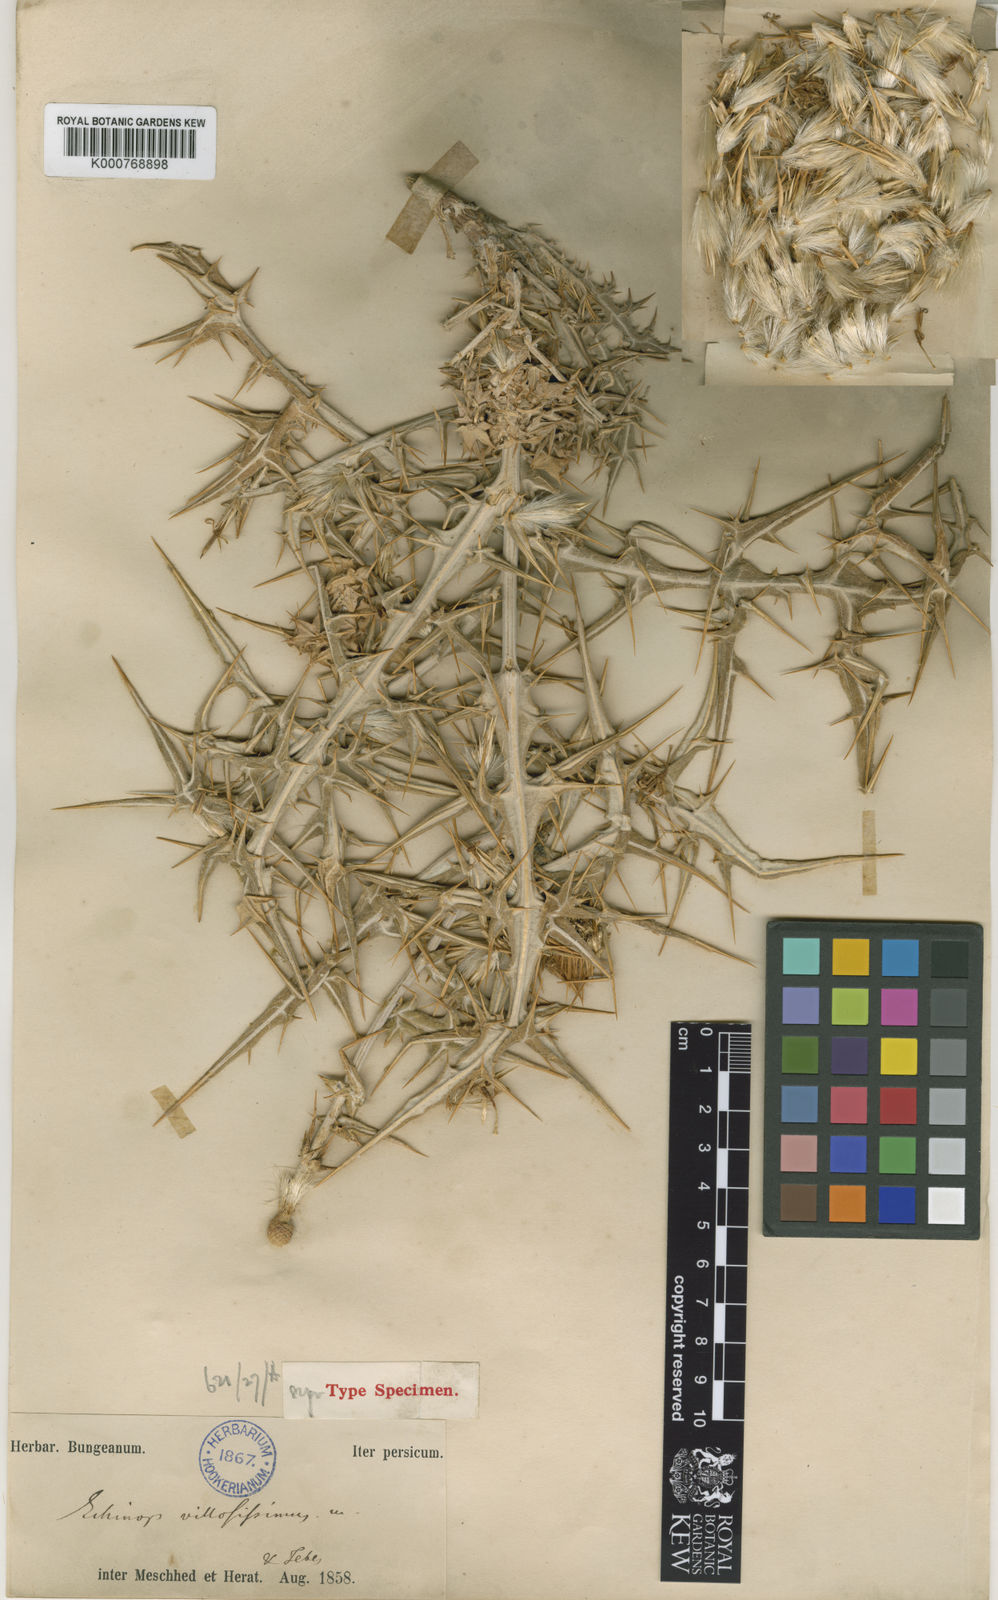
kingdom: Plantae
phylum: Tracheophyta
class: Magnoliopsida
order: Asterales
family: Asteraceae
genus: Echinops
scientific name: Echinops villosissimus
